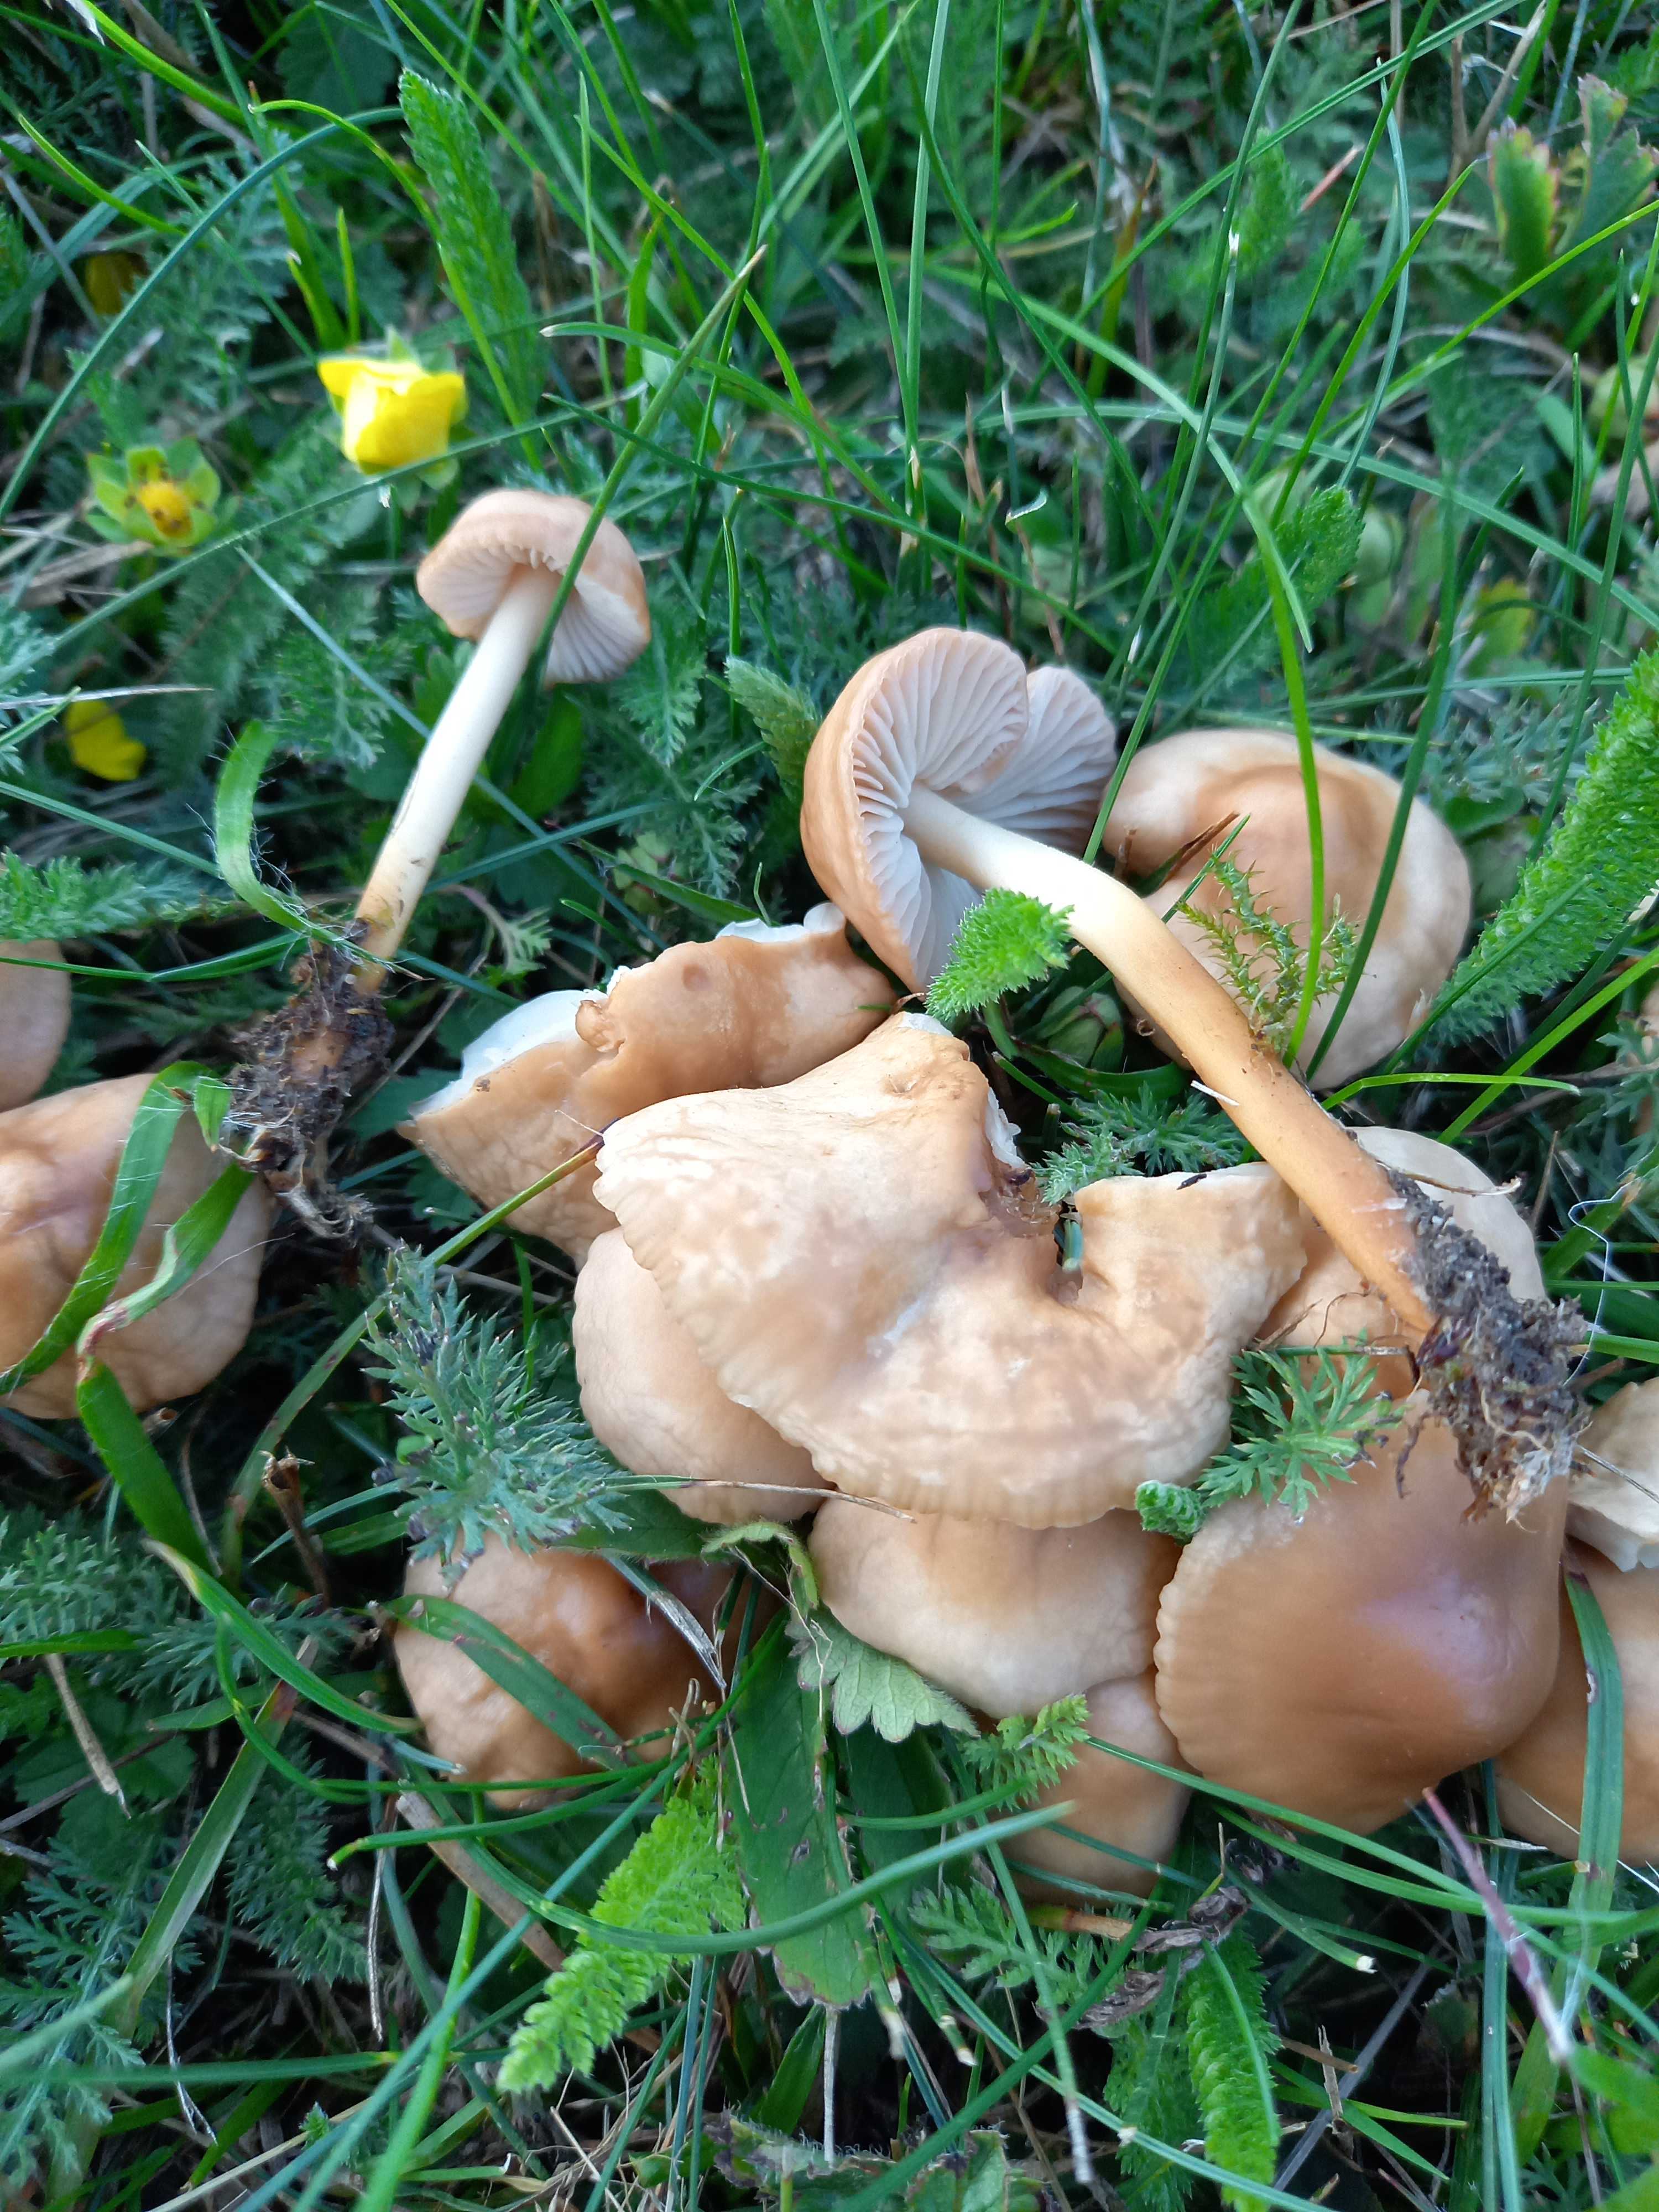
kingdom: Fungi
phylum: Basidiomycota
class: Agaricomycetes
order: Agaricales
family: Marasmiaceae
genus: Marasmius
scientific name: Marasmius oreades
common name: elledans-bruskhat
